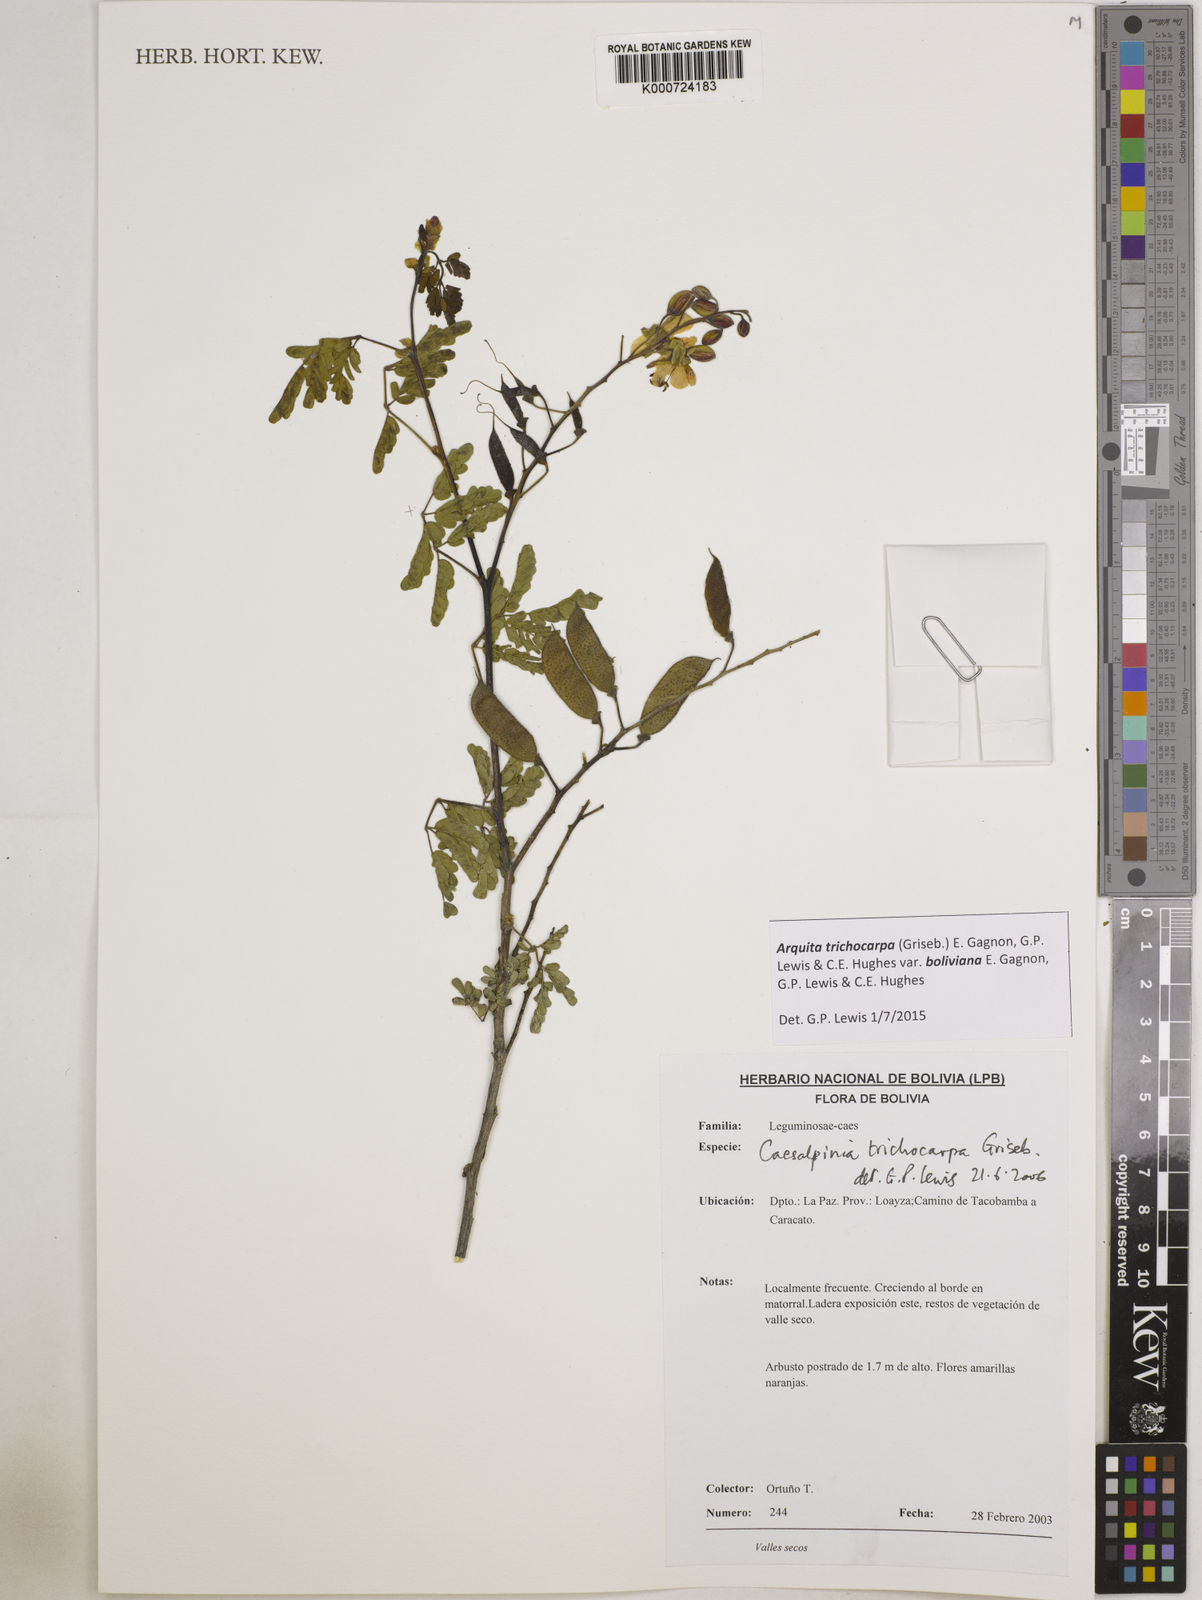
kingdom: Plantae
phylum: Tracheophyta
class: Magnoliopsida
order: Fabales
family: Fabaceae
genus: Arquita
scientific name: Arquita trichocarpa
